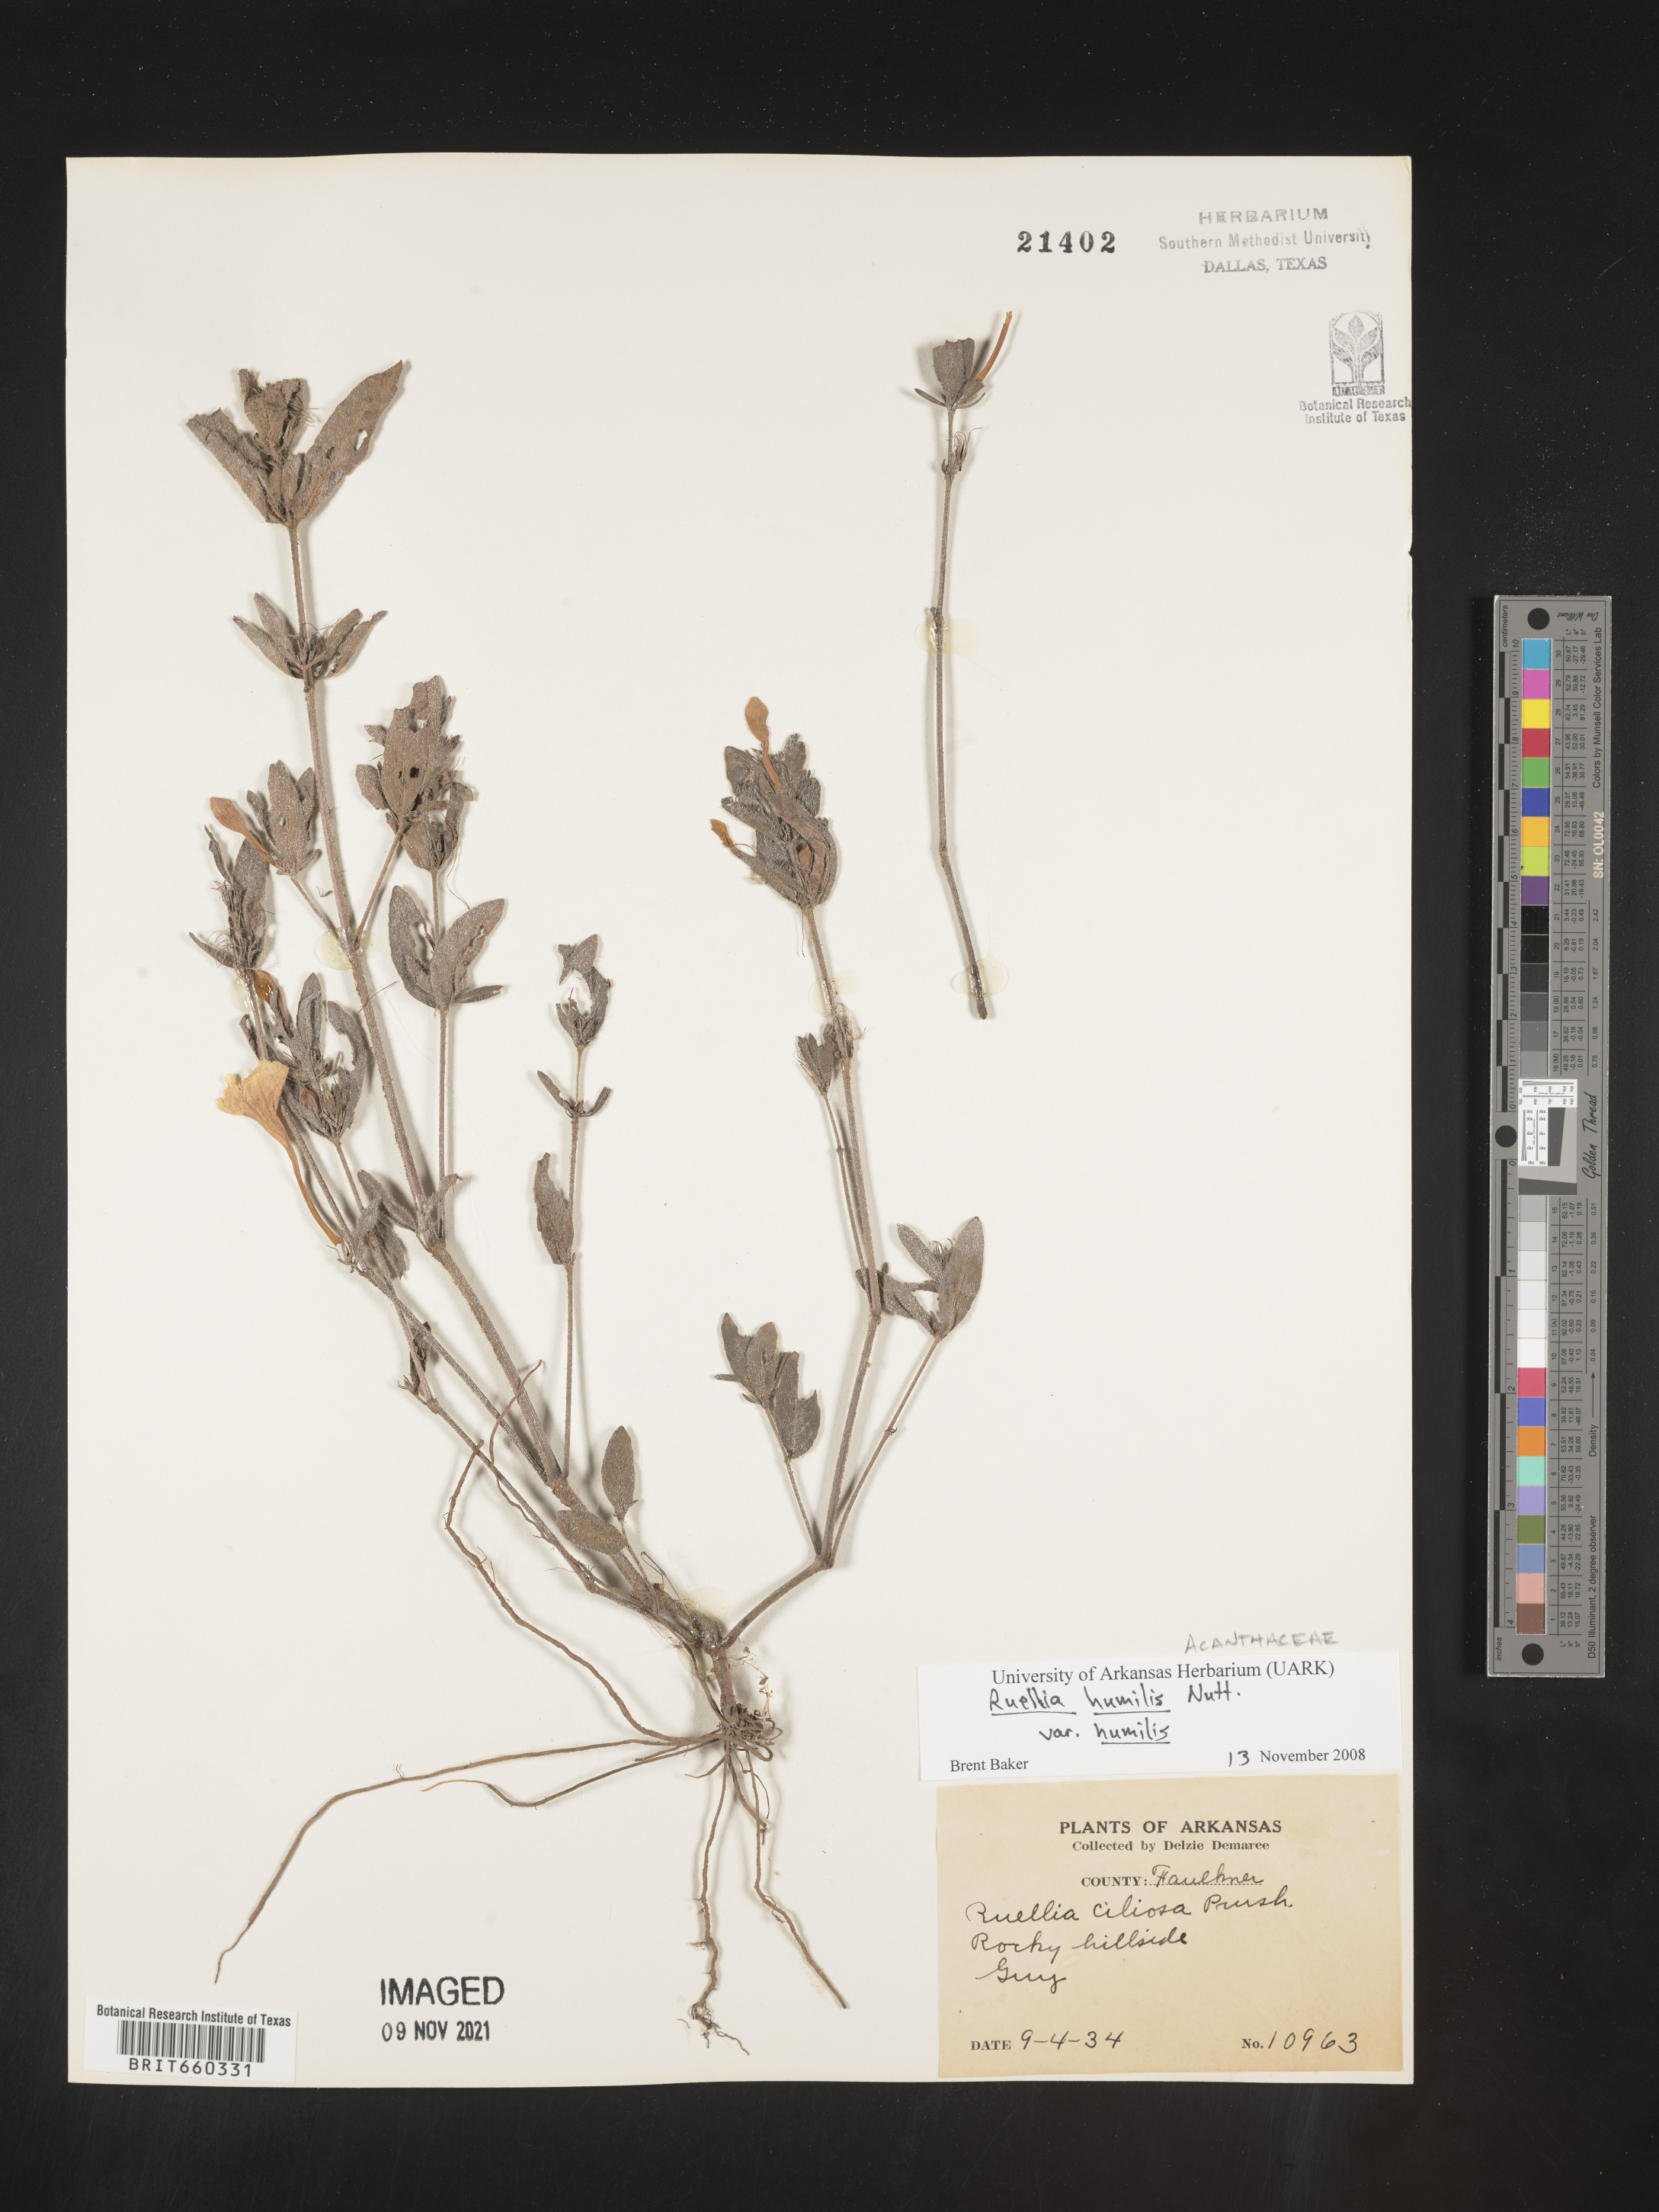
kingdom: Plantae
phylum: Tracheophyta
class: Magnoliopsida
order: Lamiales
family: Acanthaceae
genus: Ruellia
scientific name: Ruellia humilis
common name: Fringe-leaf ruellia
